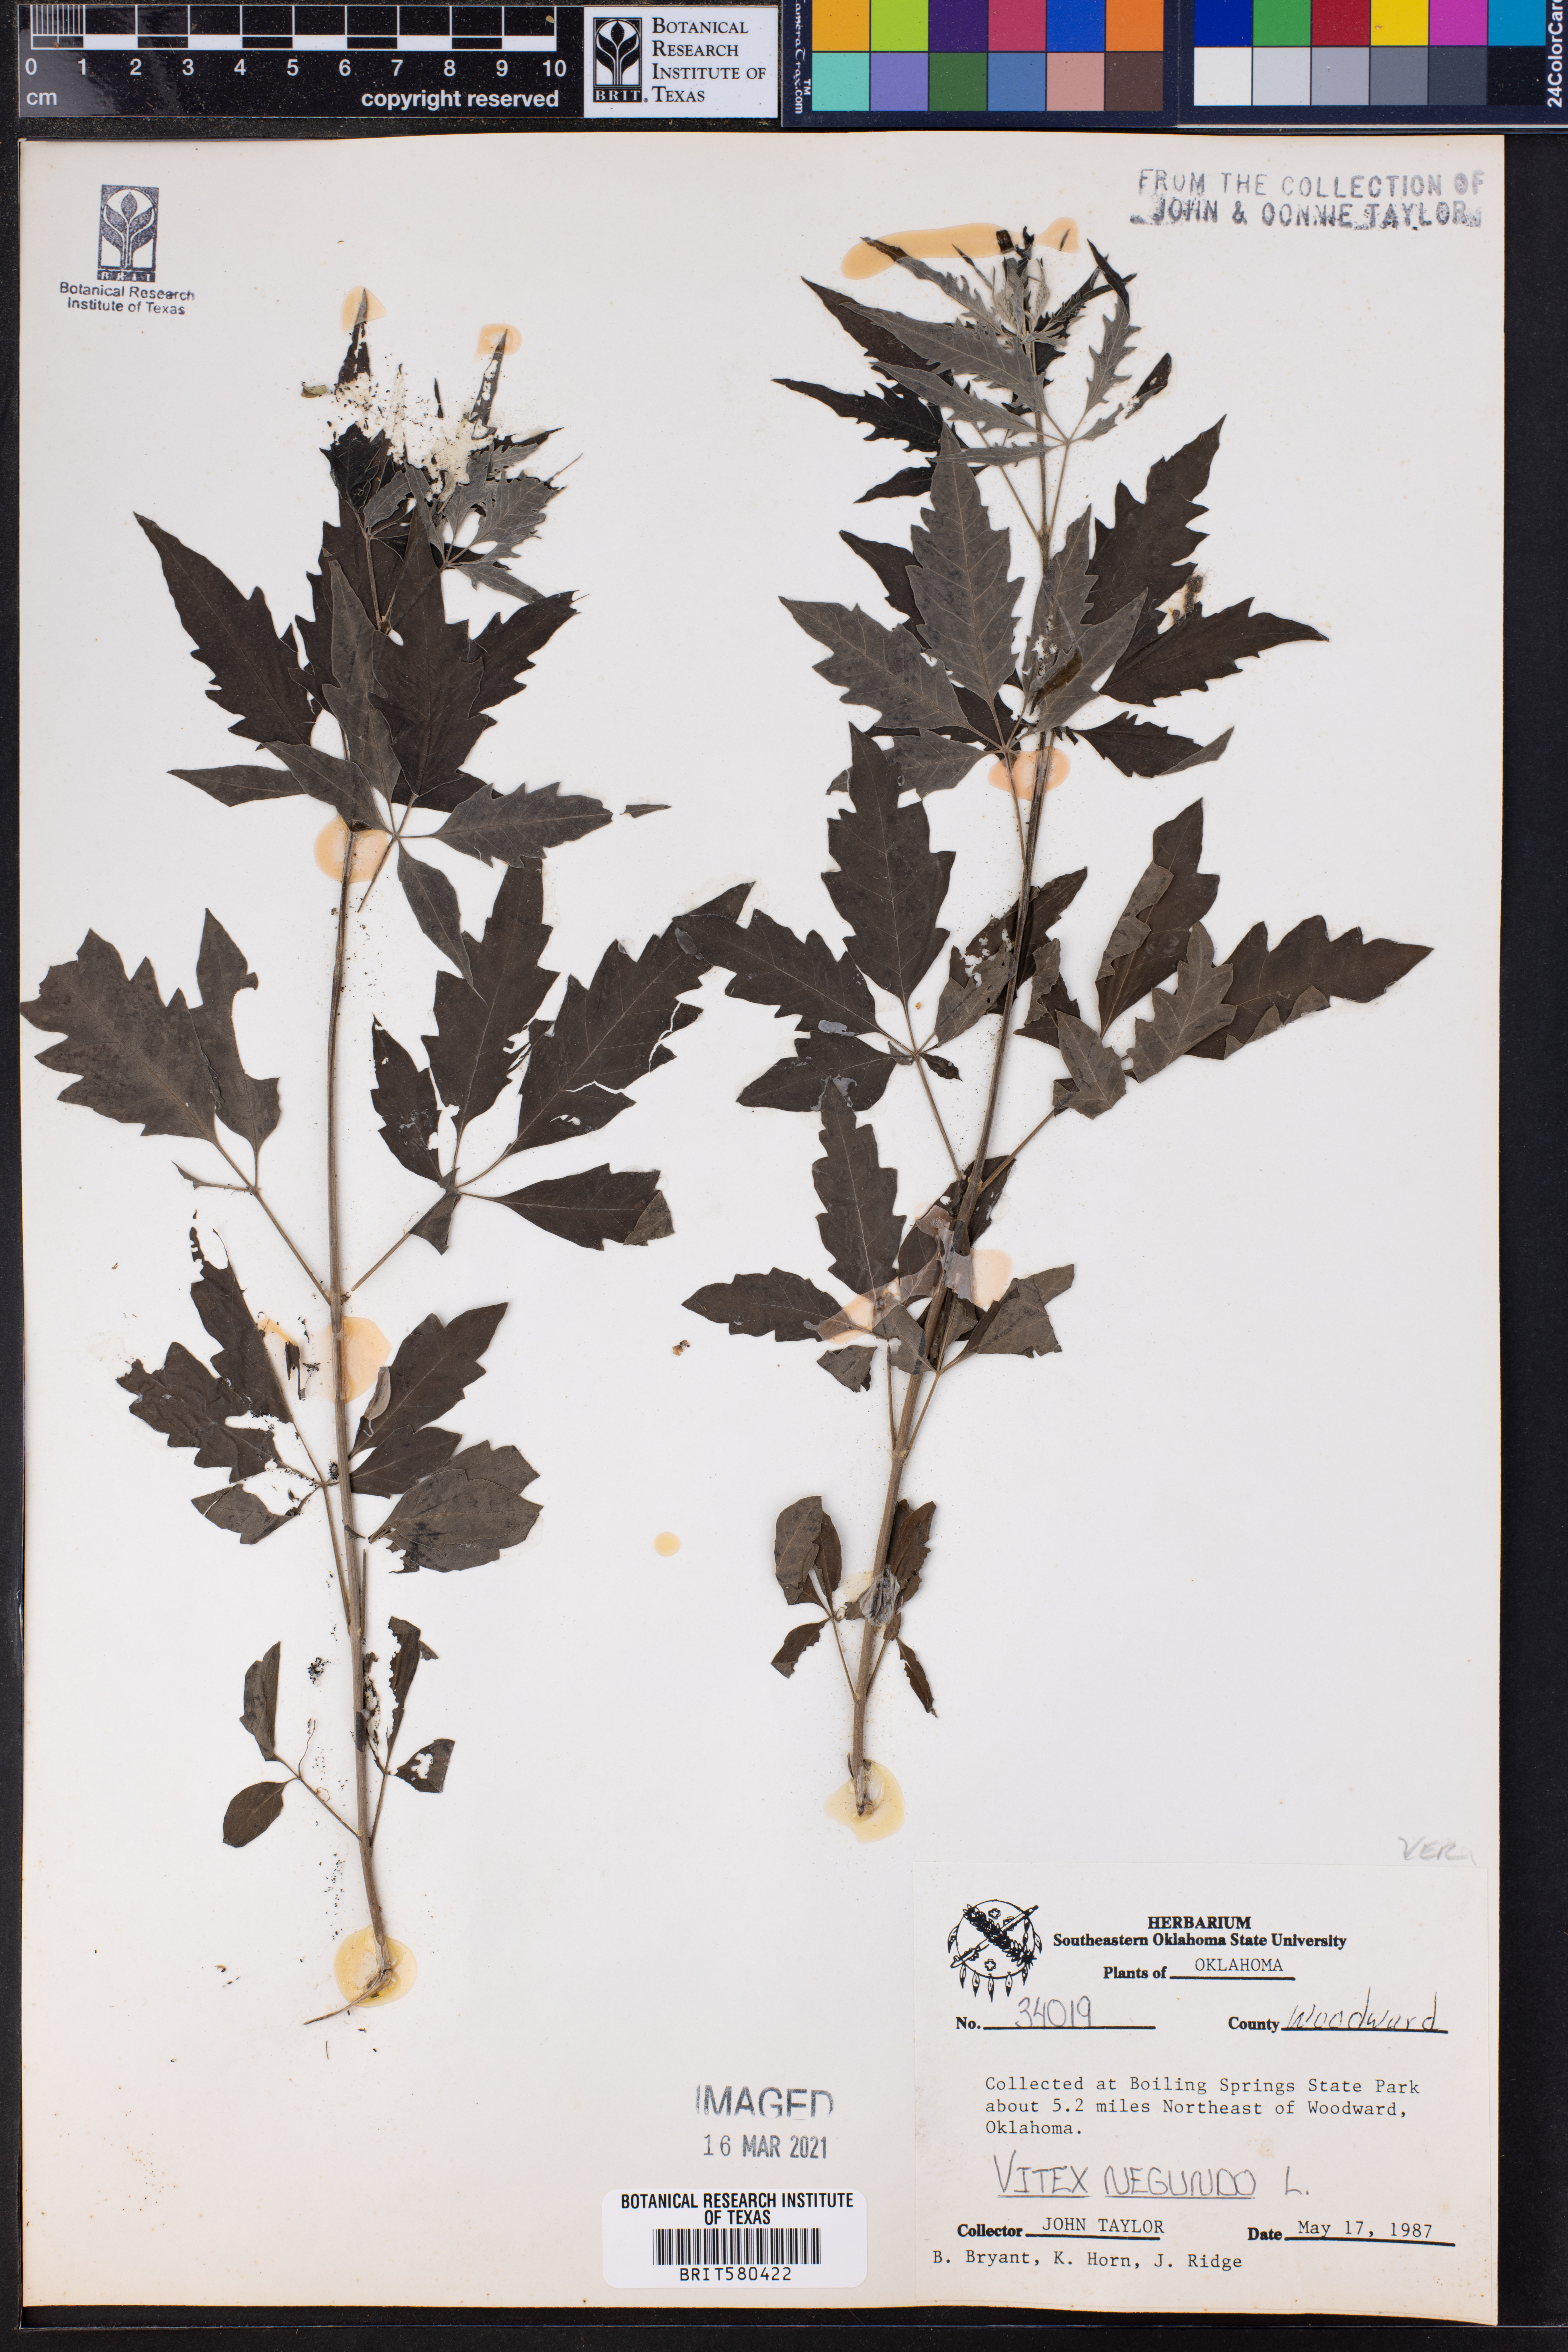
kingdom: Plantae
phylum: Tracheophyta
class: Magnoliopsida
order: Lamiales
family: Lamiaceae
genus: Vitex
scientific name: Vitex negundo
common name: Chinese chastetree
